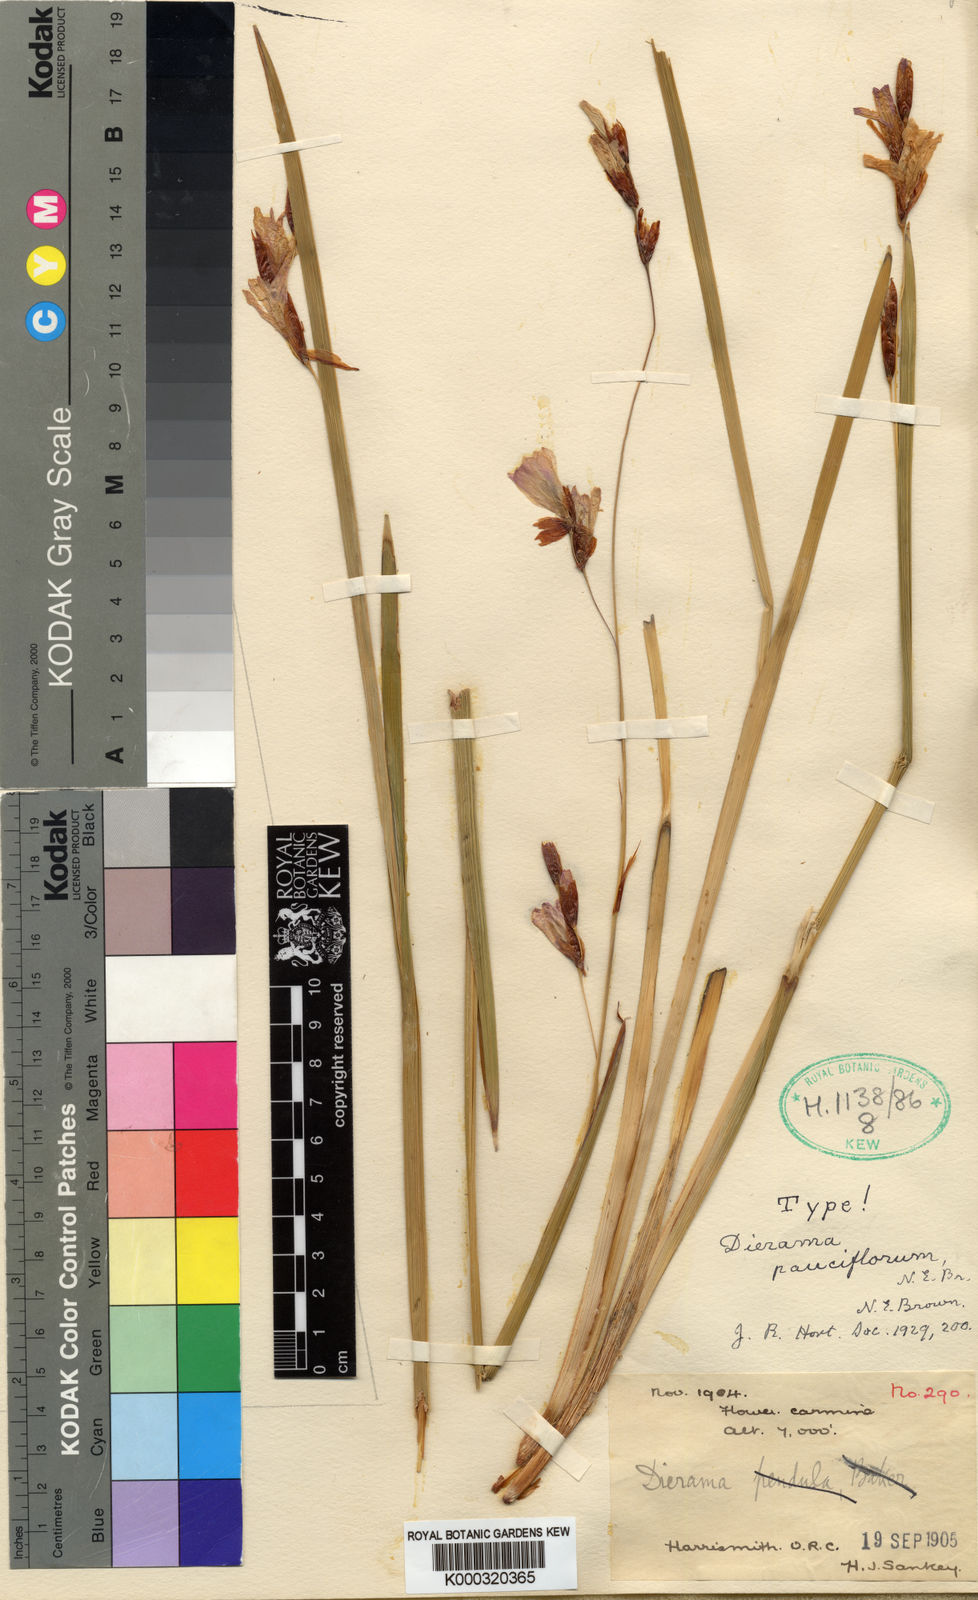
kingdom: Plantae
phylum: Tracheophyta
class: Liliopsida
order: Asparagales
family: Iridaceae
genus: Dierama
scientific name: Dierama pauciflorum
